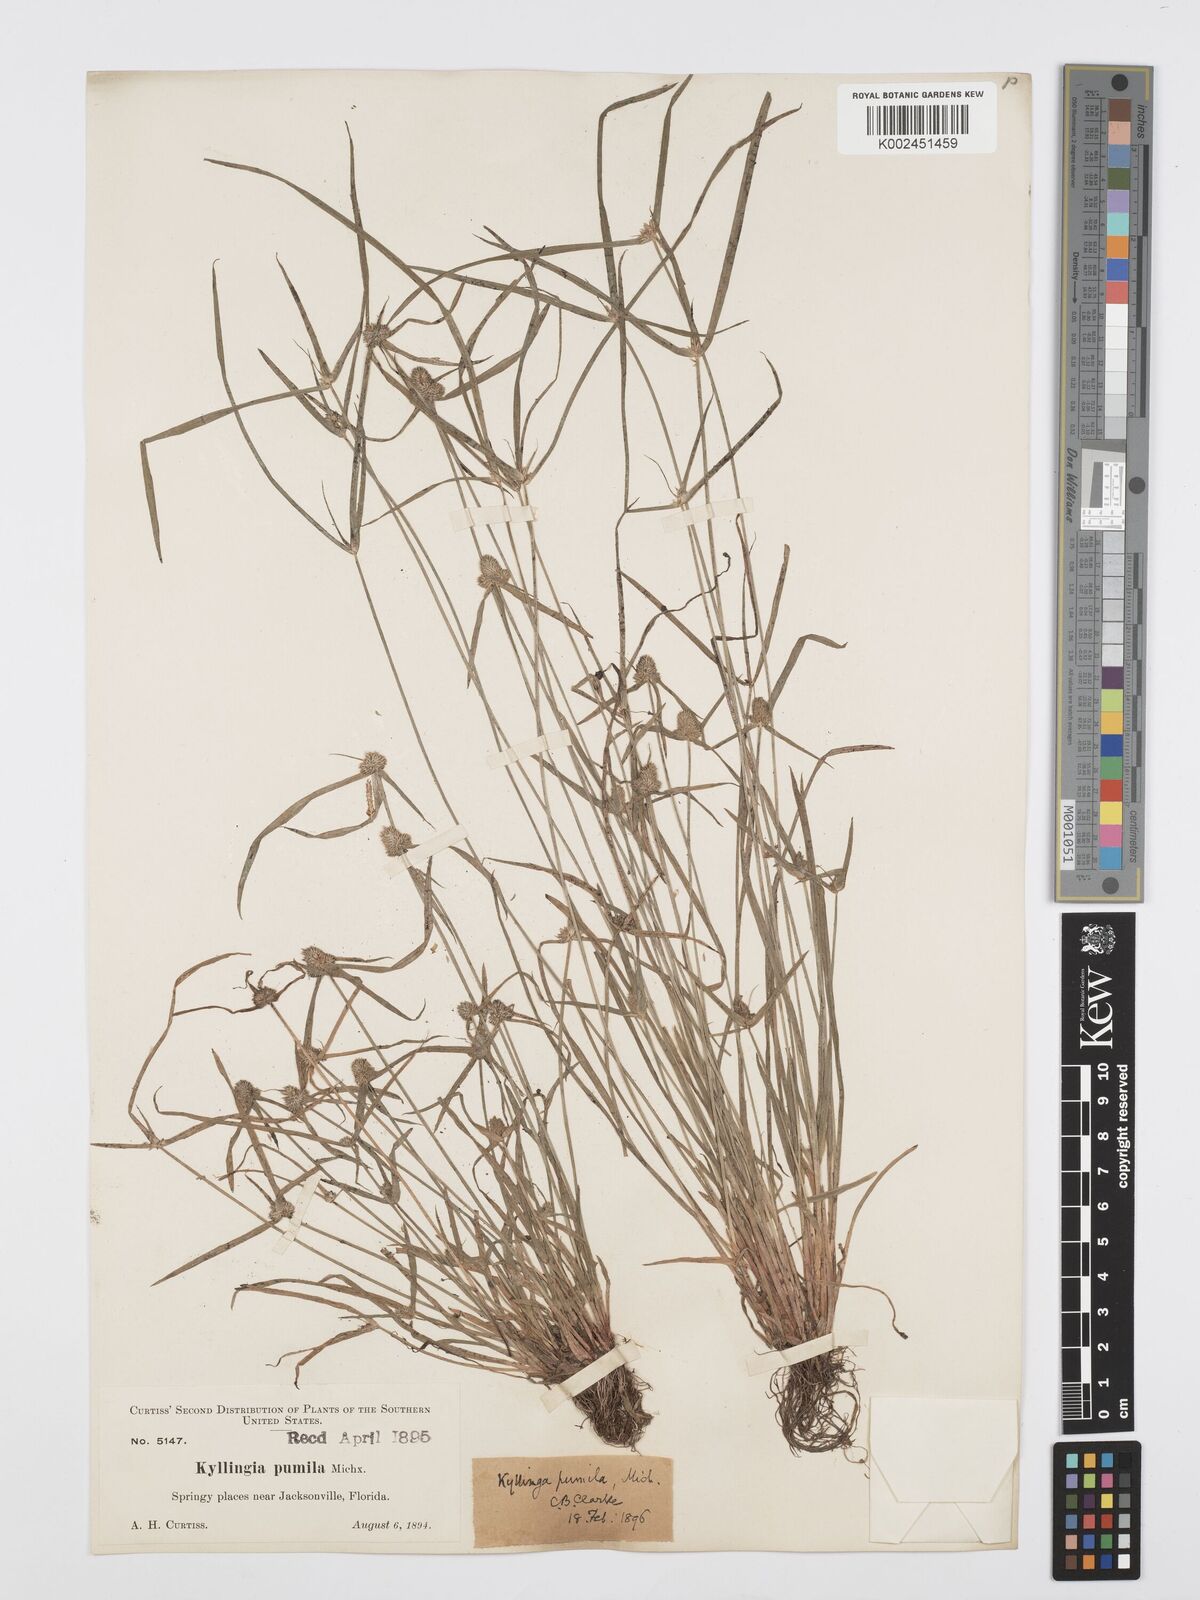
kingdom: Plantae
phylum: Tracheophyta
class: Liliopsida
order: Poales
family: Cyperaceae
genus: Cyperus
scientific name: Cyperus
